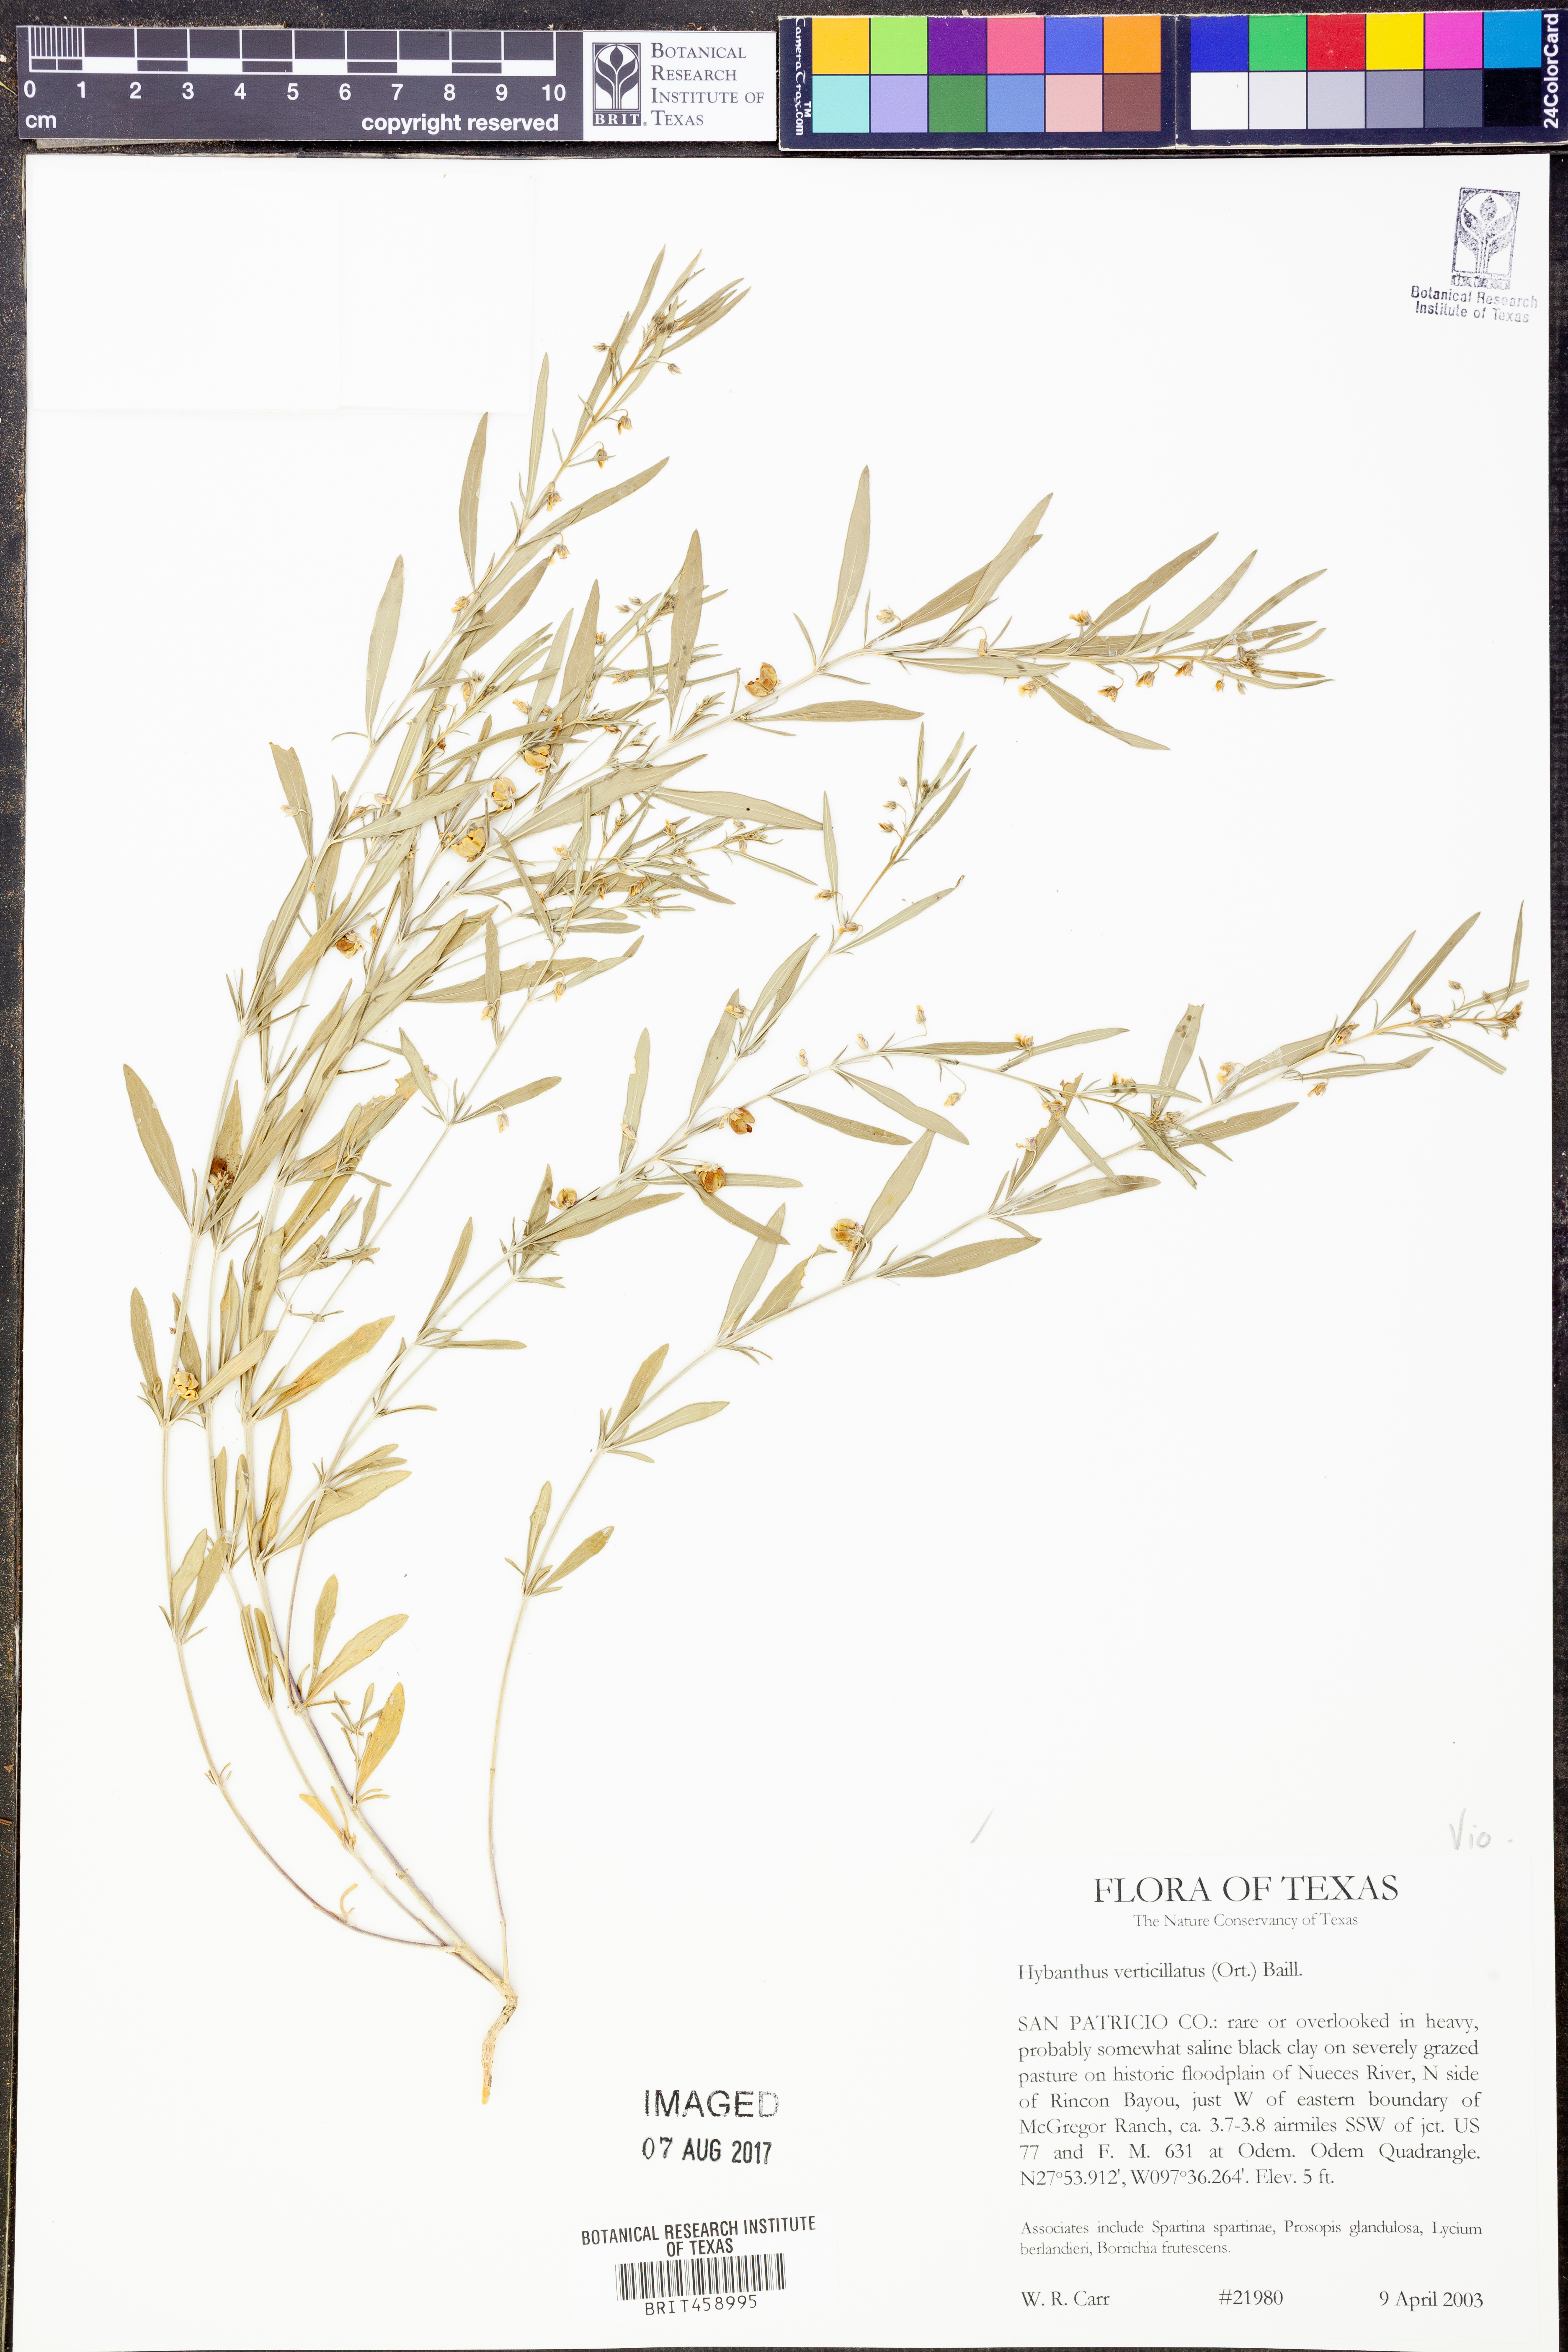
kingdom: Plantae
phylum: Tracheophyta
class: Magnoliopsida
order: Malpighiales
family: Violaceae
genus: Pombalia
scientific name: Pombalia verticillata
